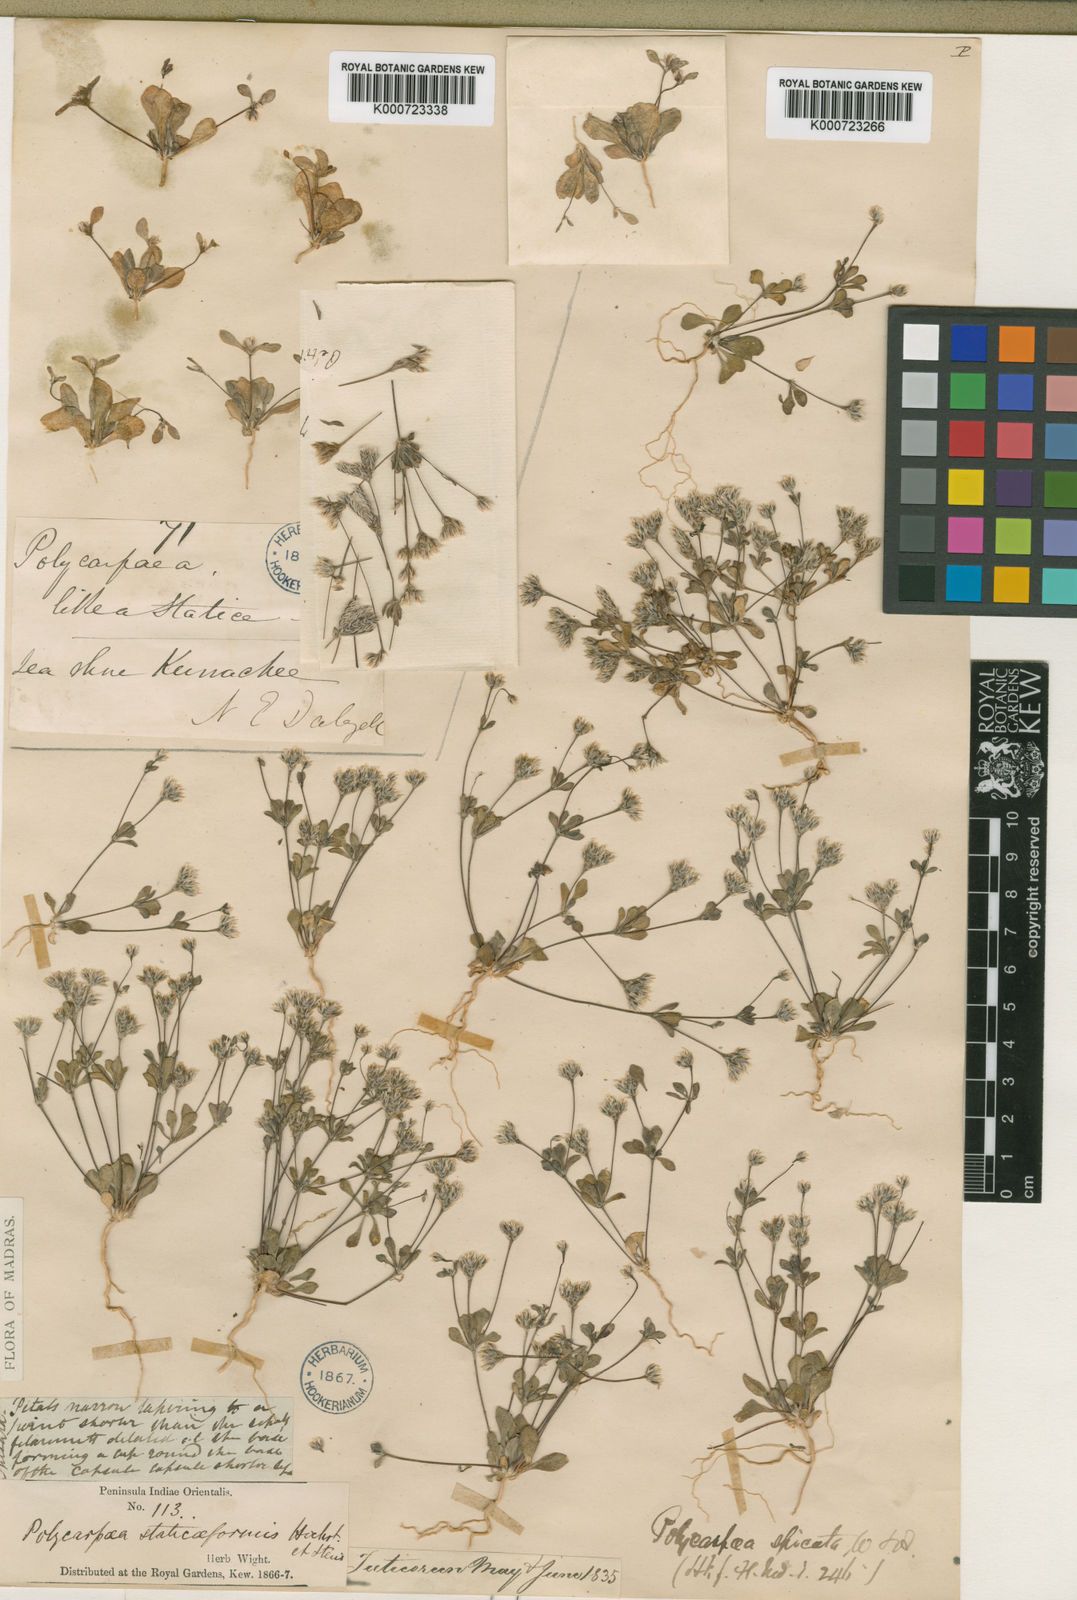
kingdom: Plantae
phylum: Tracheophyta
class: Magnoliopsida
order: Caryophyllales
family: Caryophyllaceae
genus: Polycarpaea
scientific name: Polycarpaea spicata
